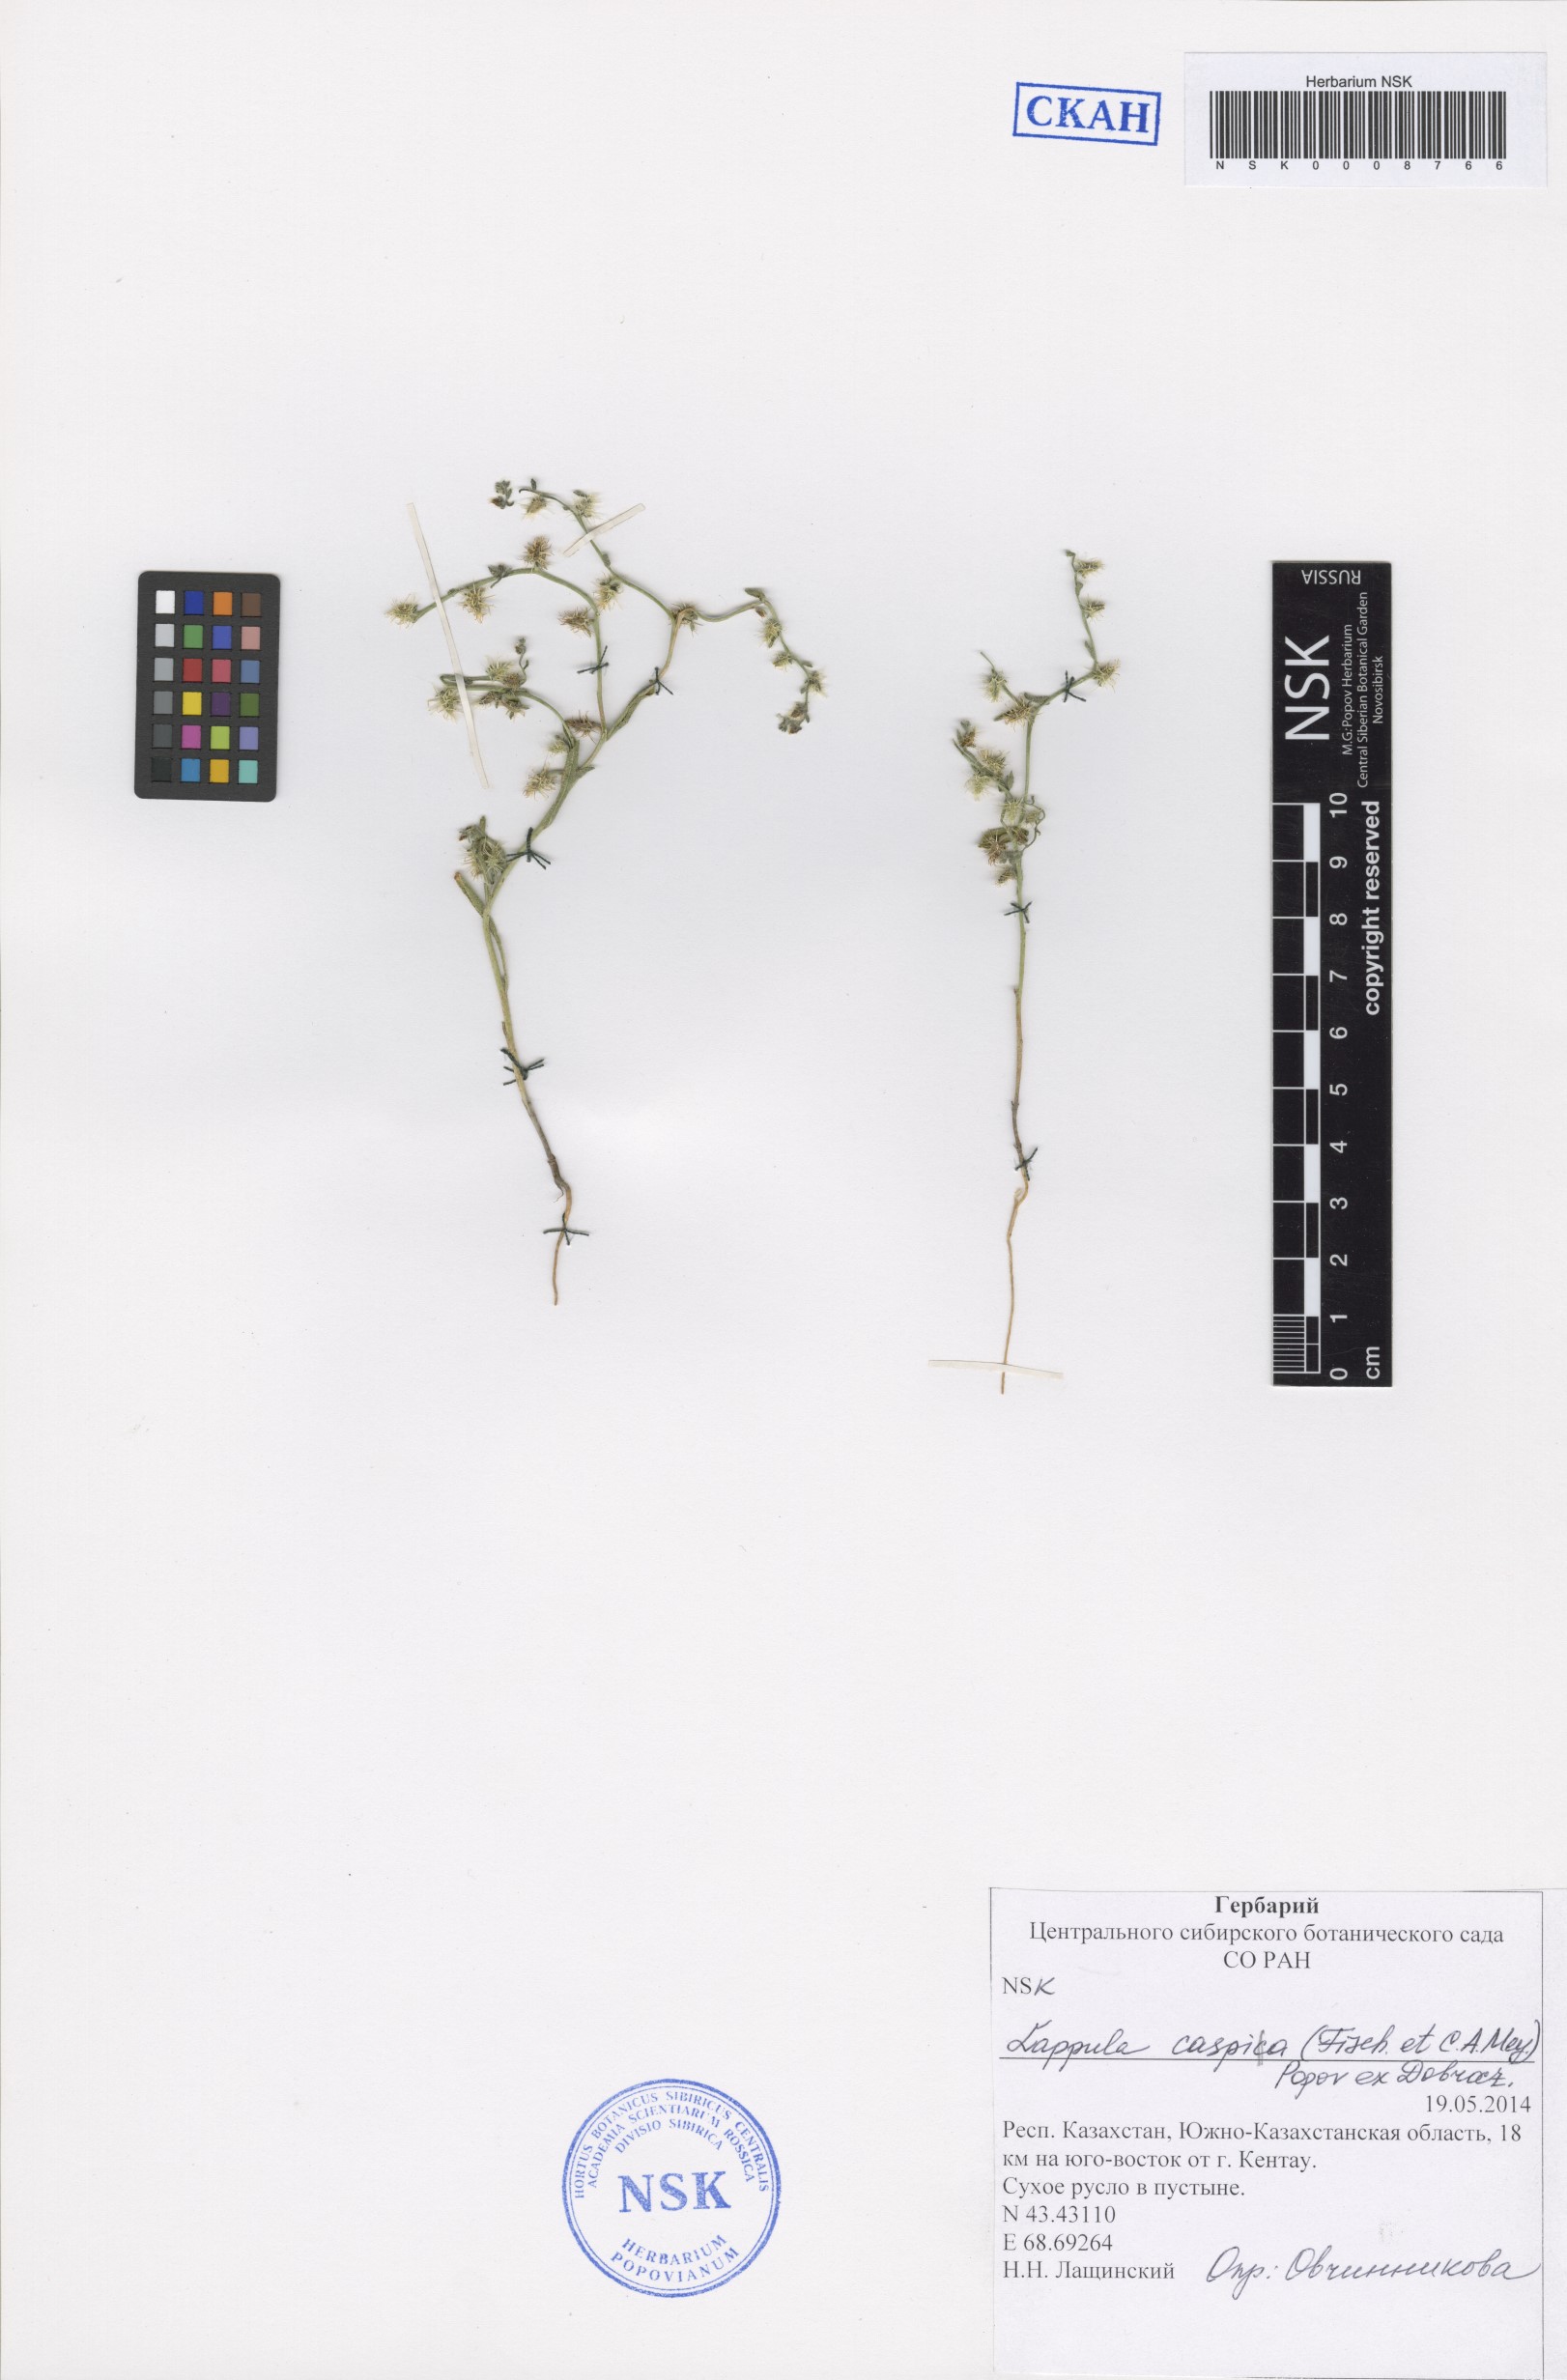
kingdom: Plantae
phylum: Tracheophyta
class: Magnoliopsida
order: Boraginales
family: Boraginaceae
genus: Lappula
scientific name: Lappula caspia
